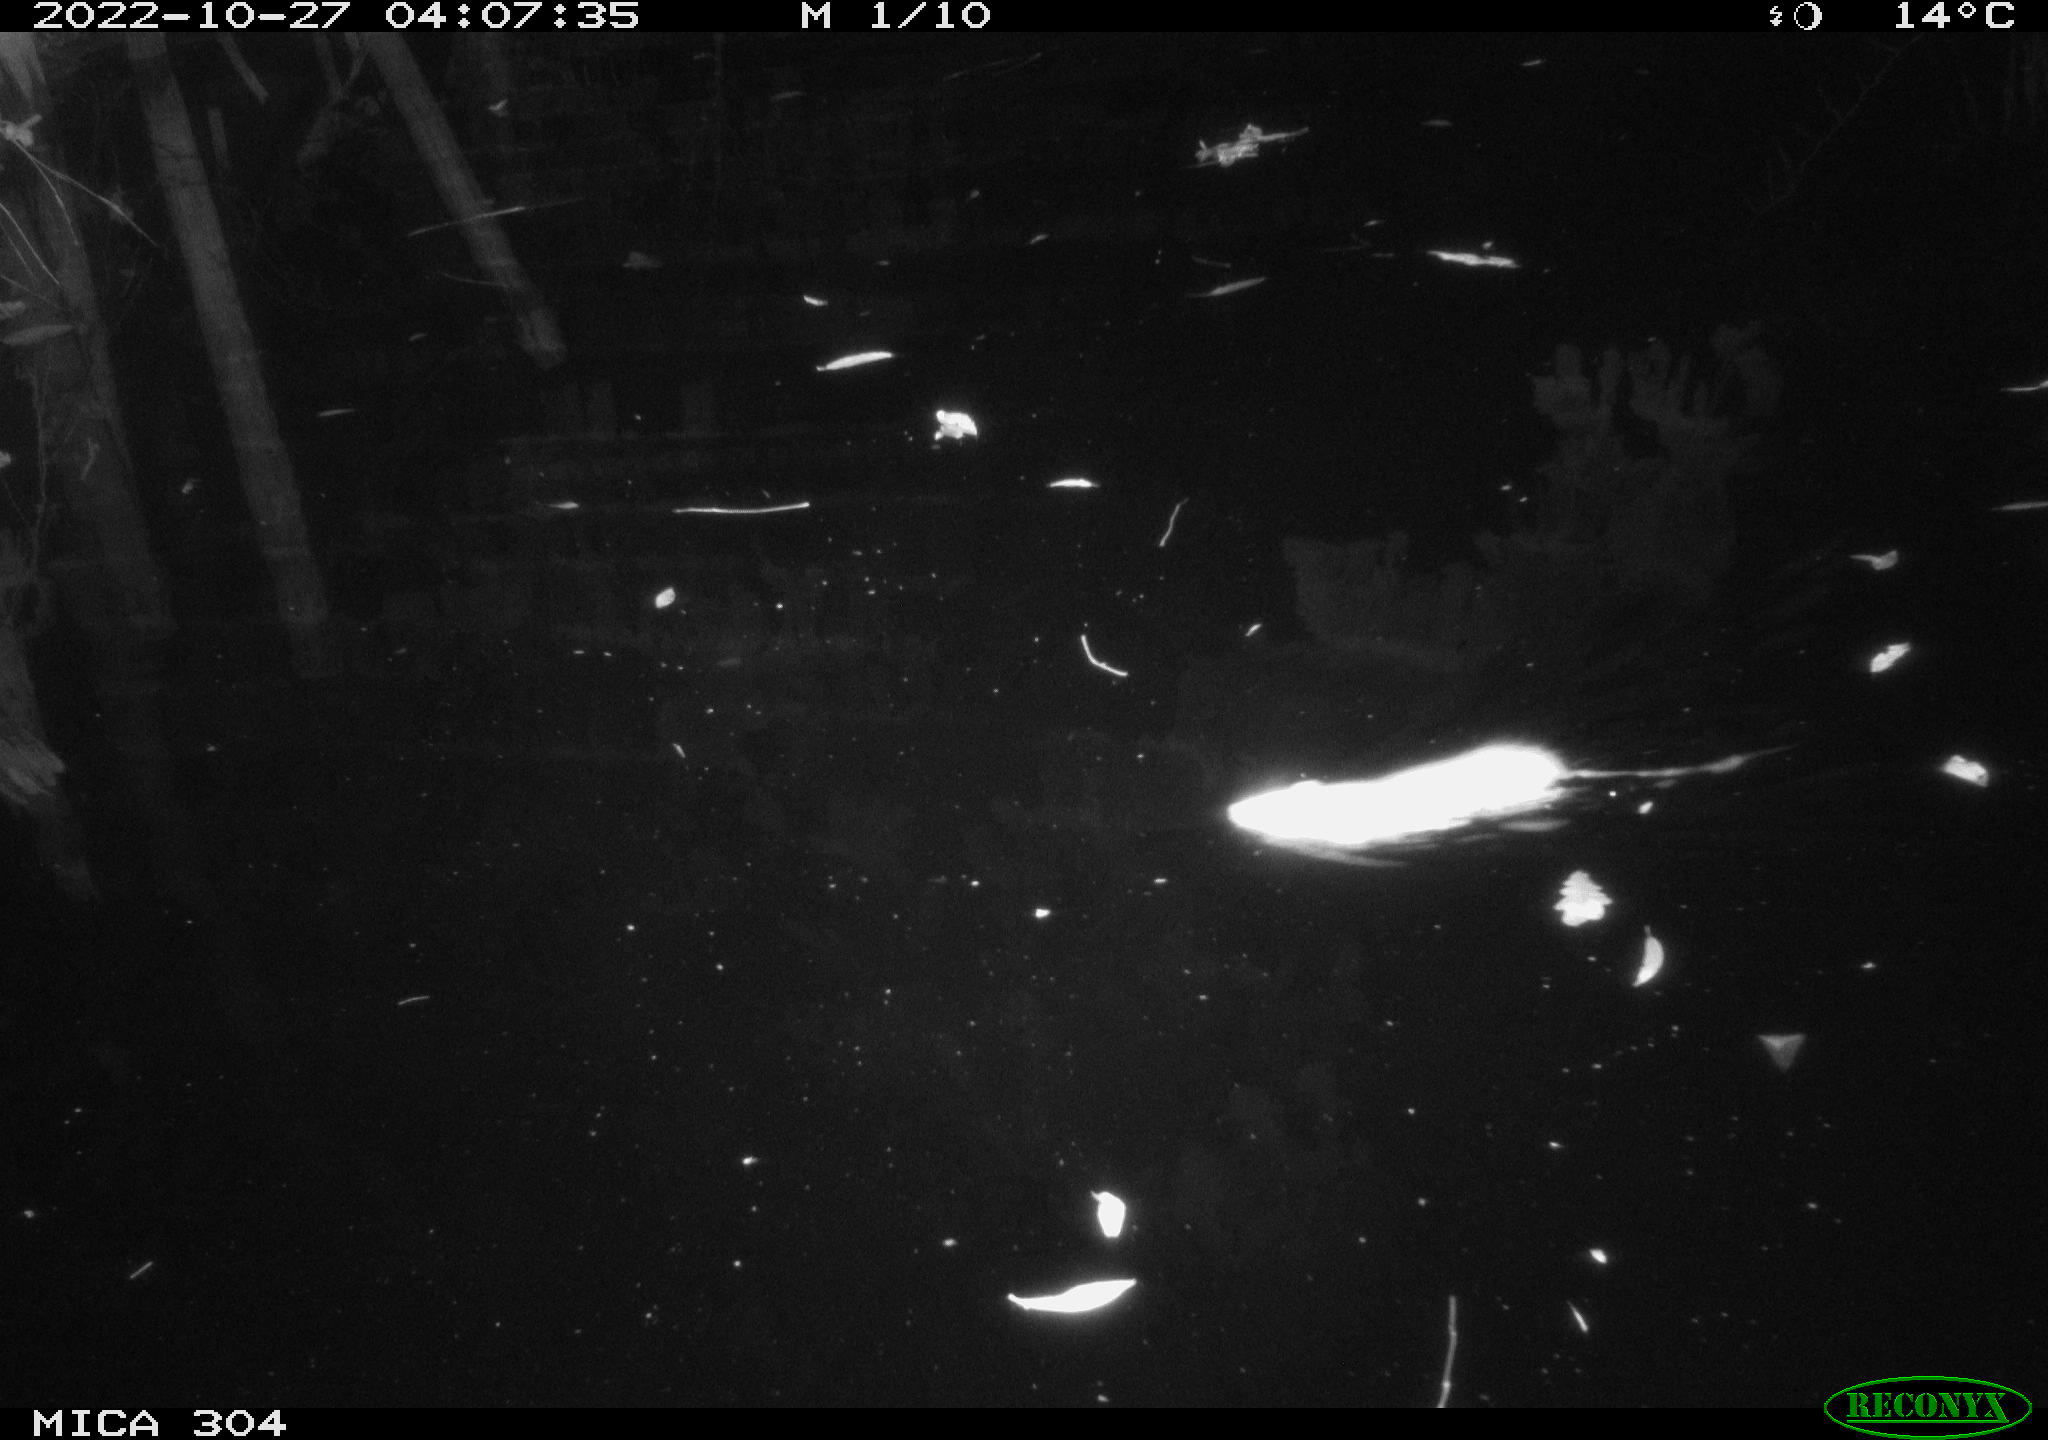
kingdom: Animalia
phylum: Chordata
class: Mammalia
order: Rodentia
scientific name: Rodentia
